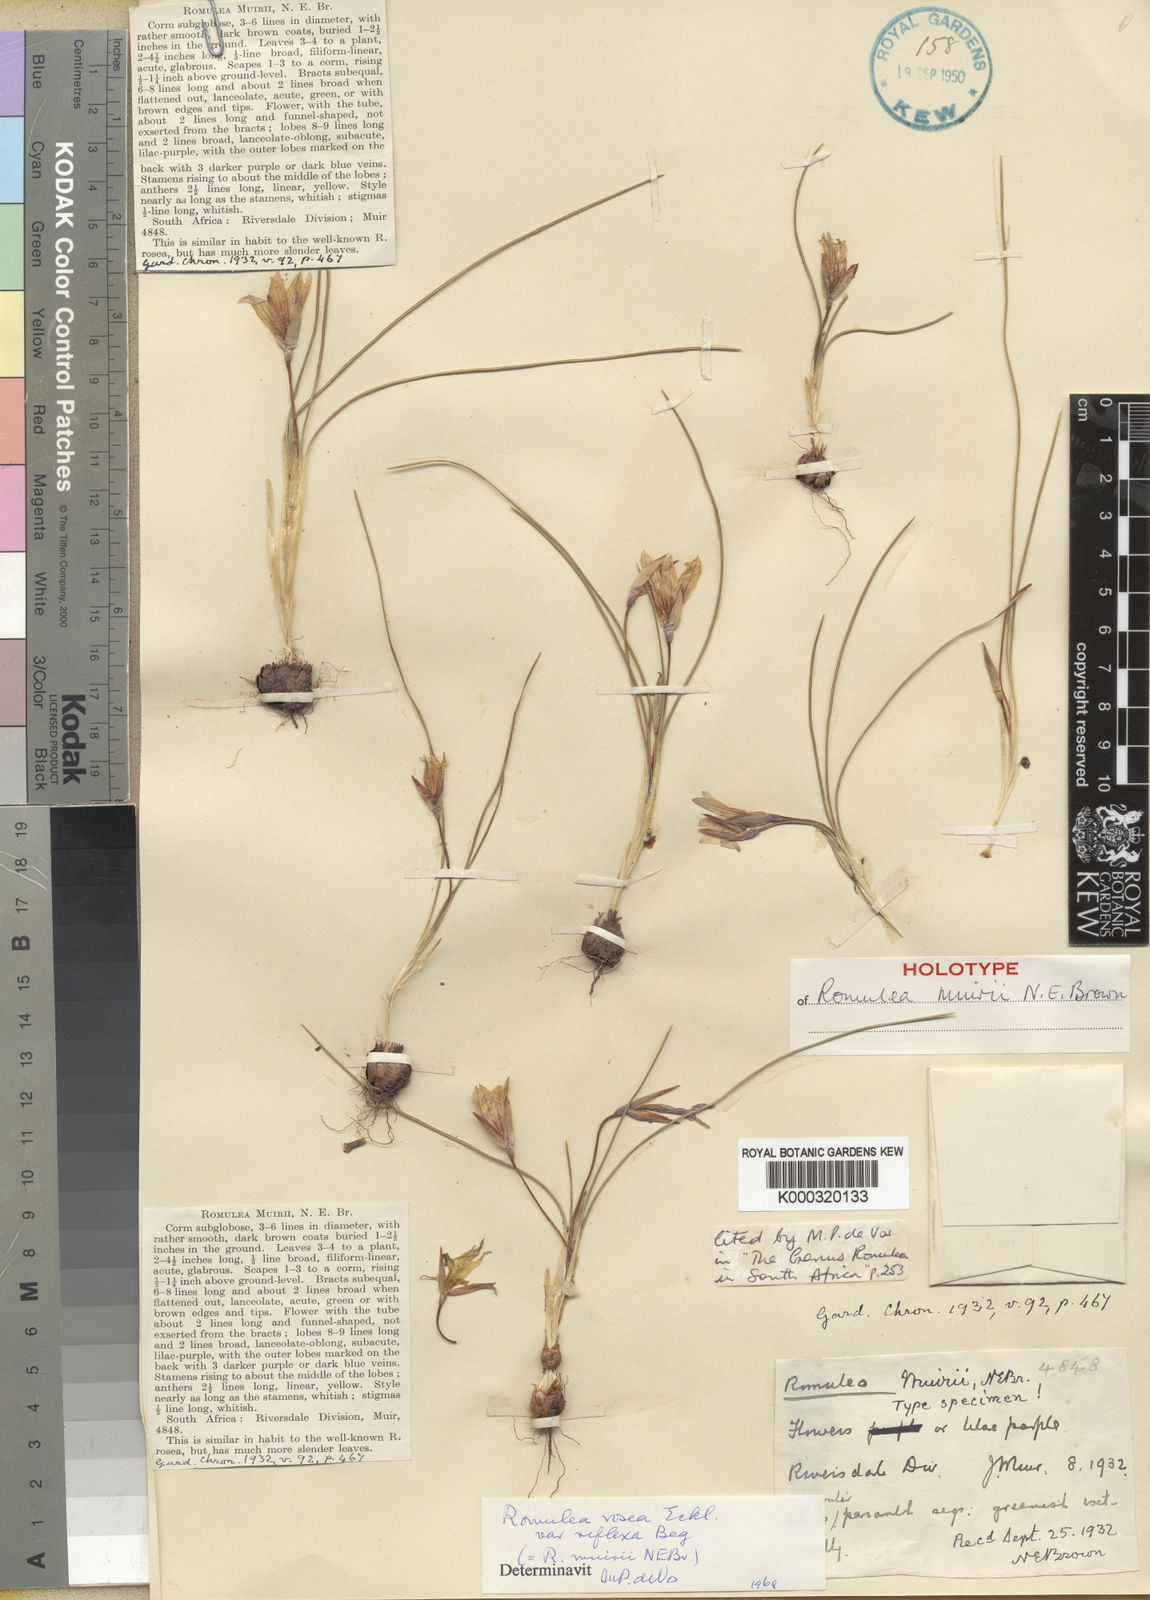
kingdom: Plantae
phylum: Tracheophyta
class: Liliopsida
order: Asparagales
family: Iridaceae
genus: Romulea
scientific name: Romulea rosea
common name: Oniongrass
